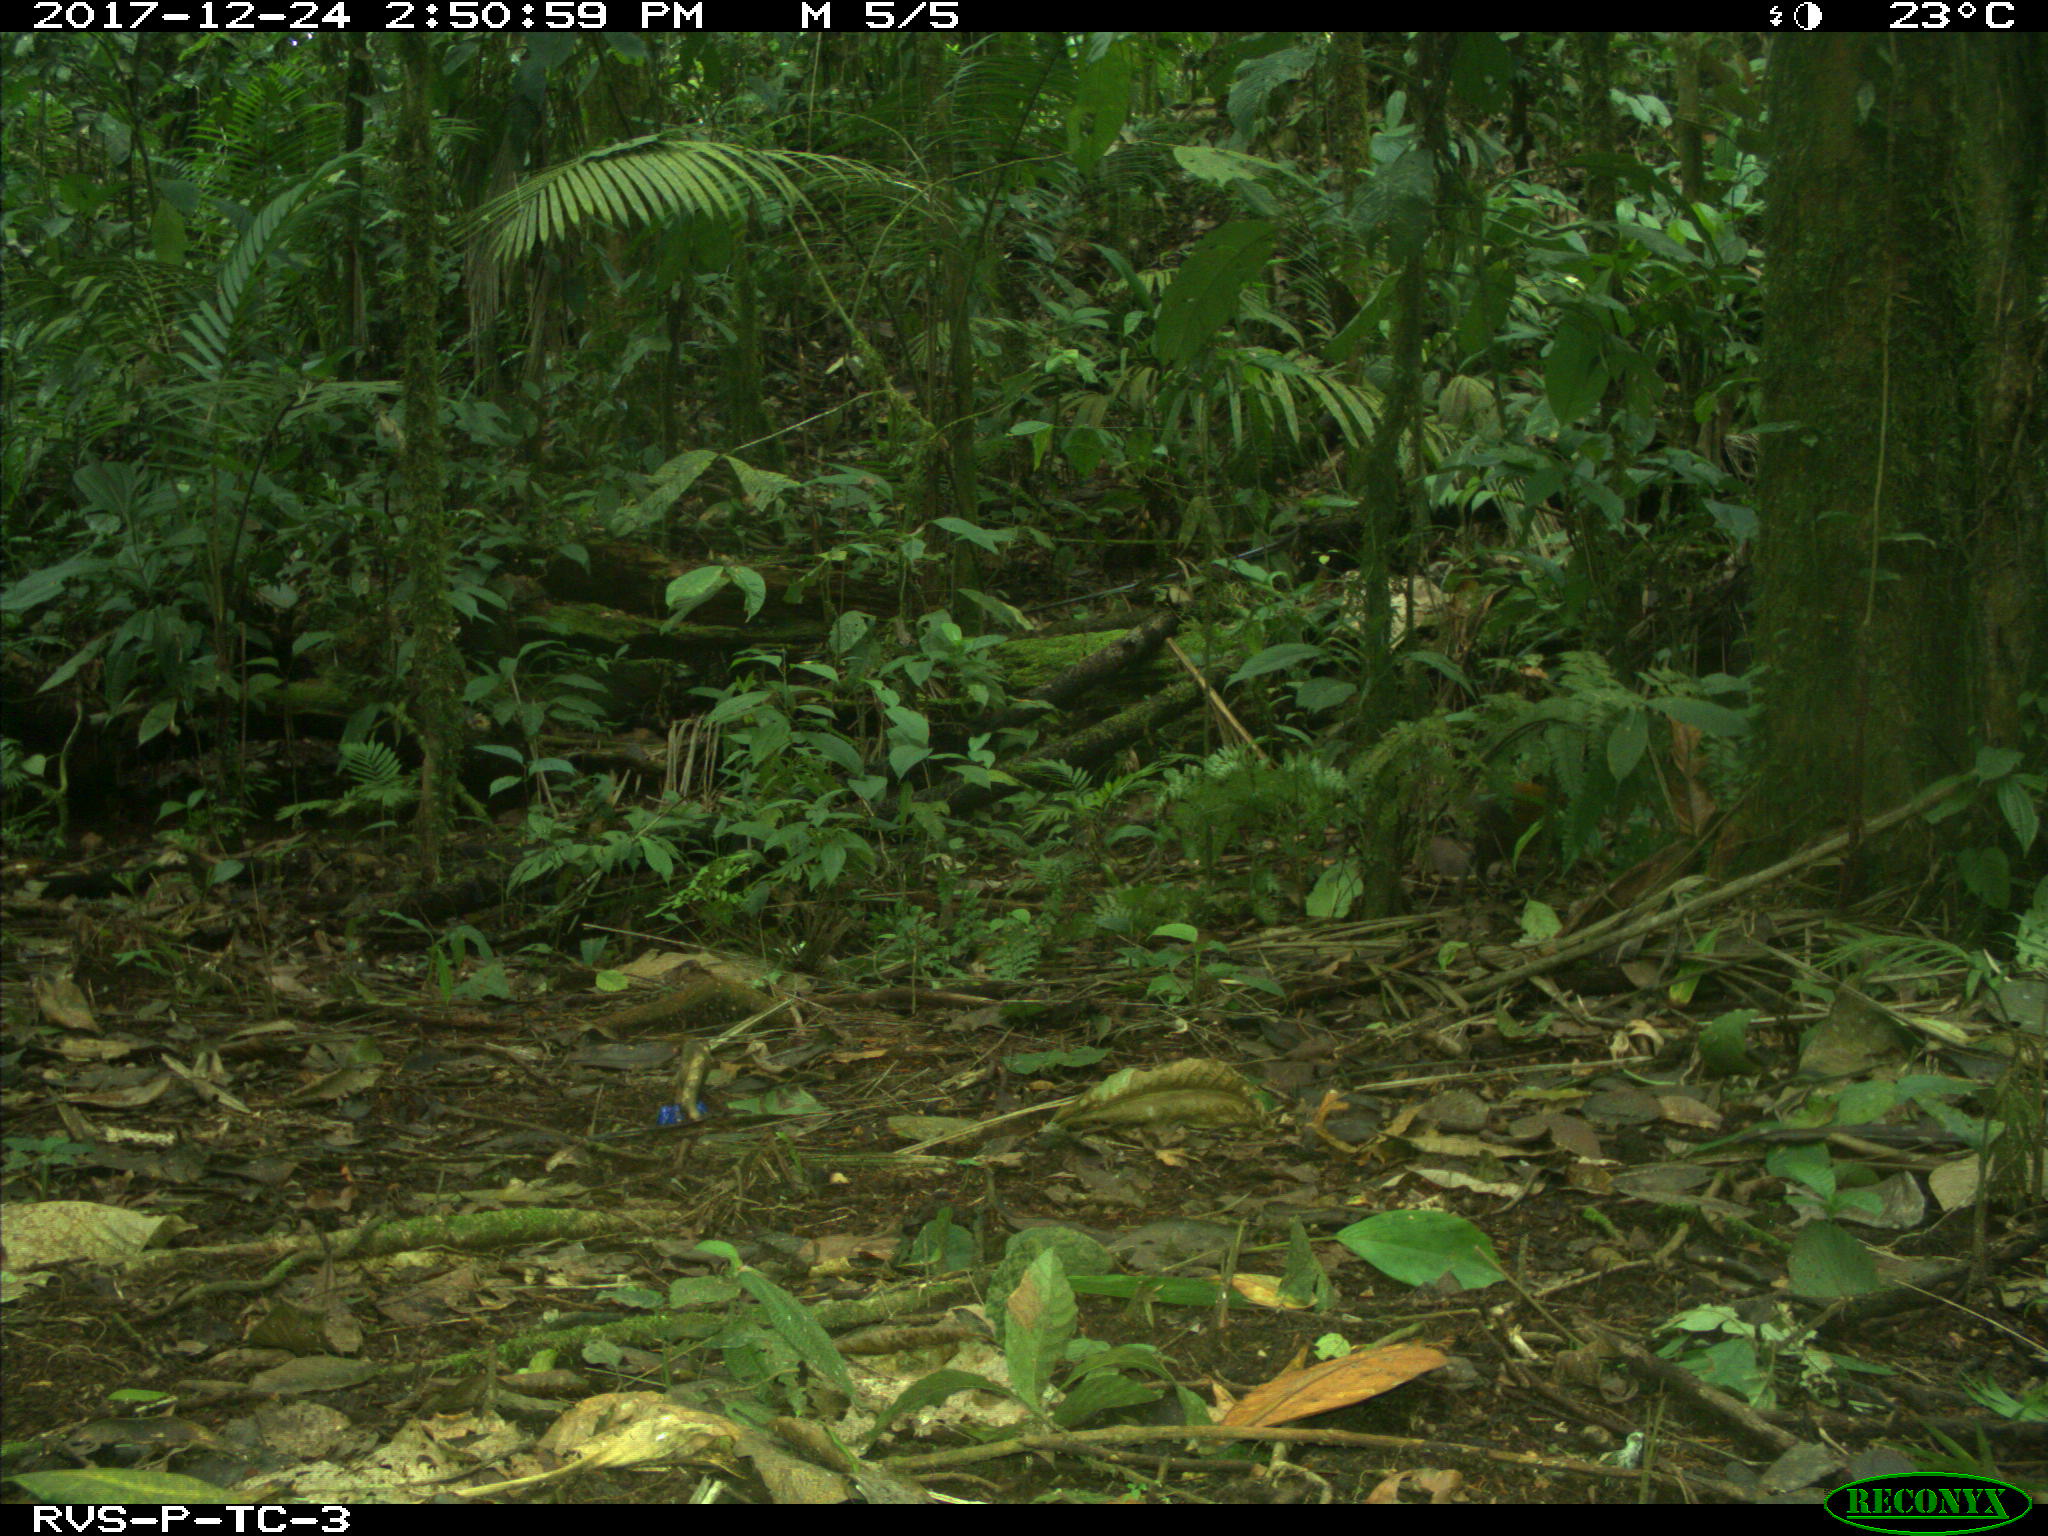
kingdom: Animalia
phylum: Chordata
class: Mammalia
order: Rodentia
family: Dasyproctidae
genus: Dasyprocta
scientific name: Dasyprocta punctata
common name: Central american agouti
